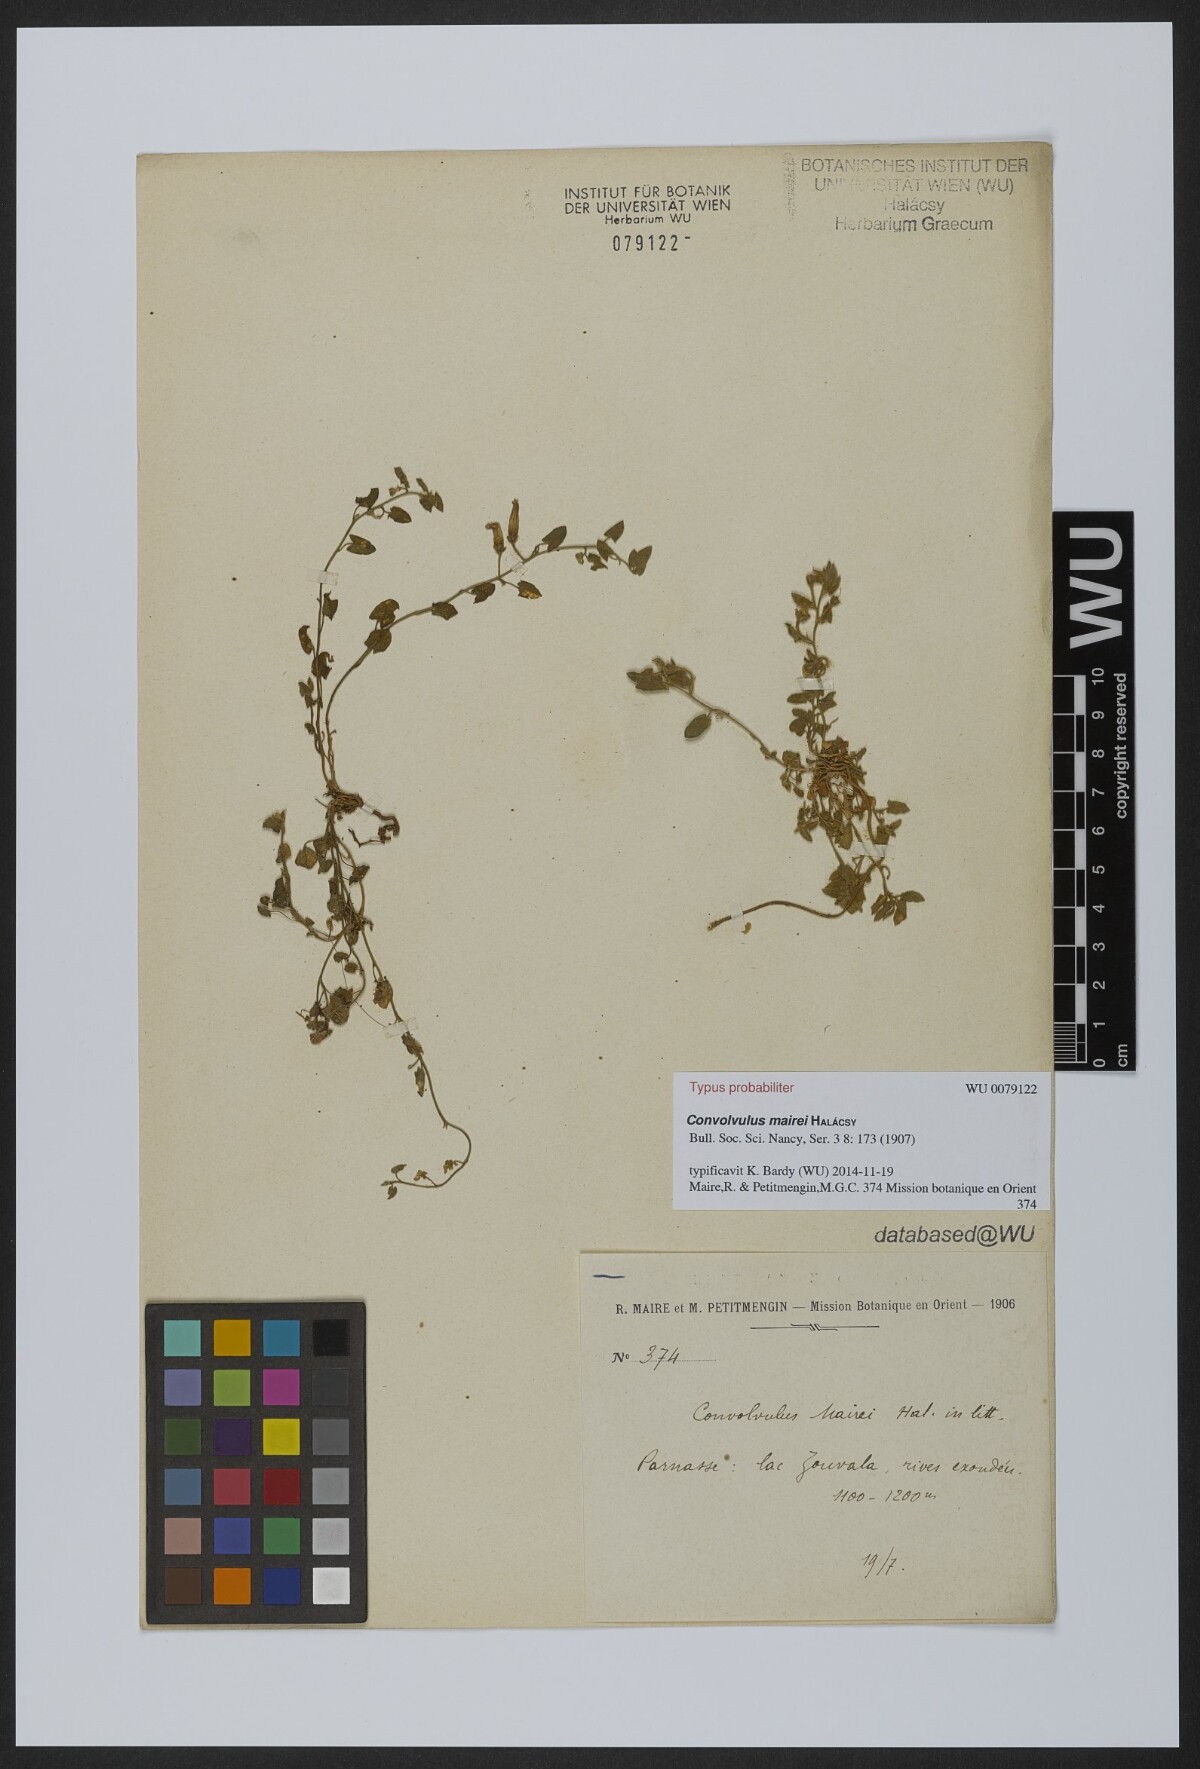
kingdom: Plantae
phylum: Tracheophyta
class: Magnoliopsida
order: Solanales
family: Convolvulaceae
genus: Convolvulus
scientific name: Convolvulus mairei
